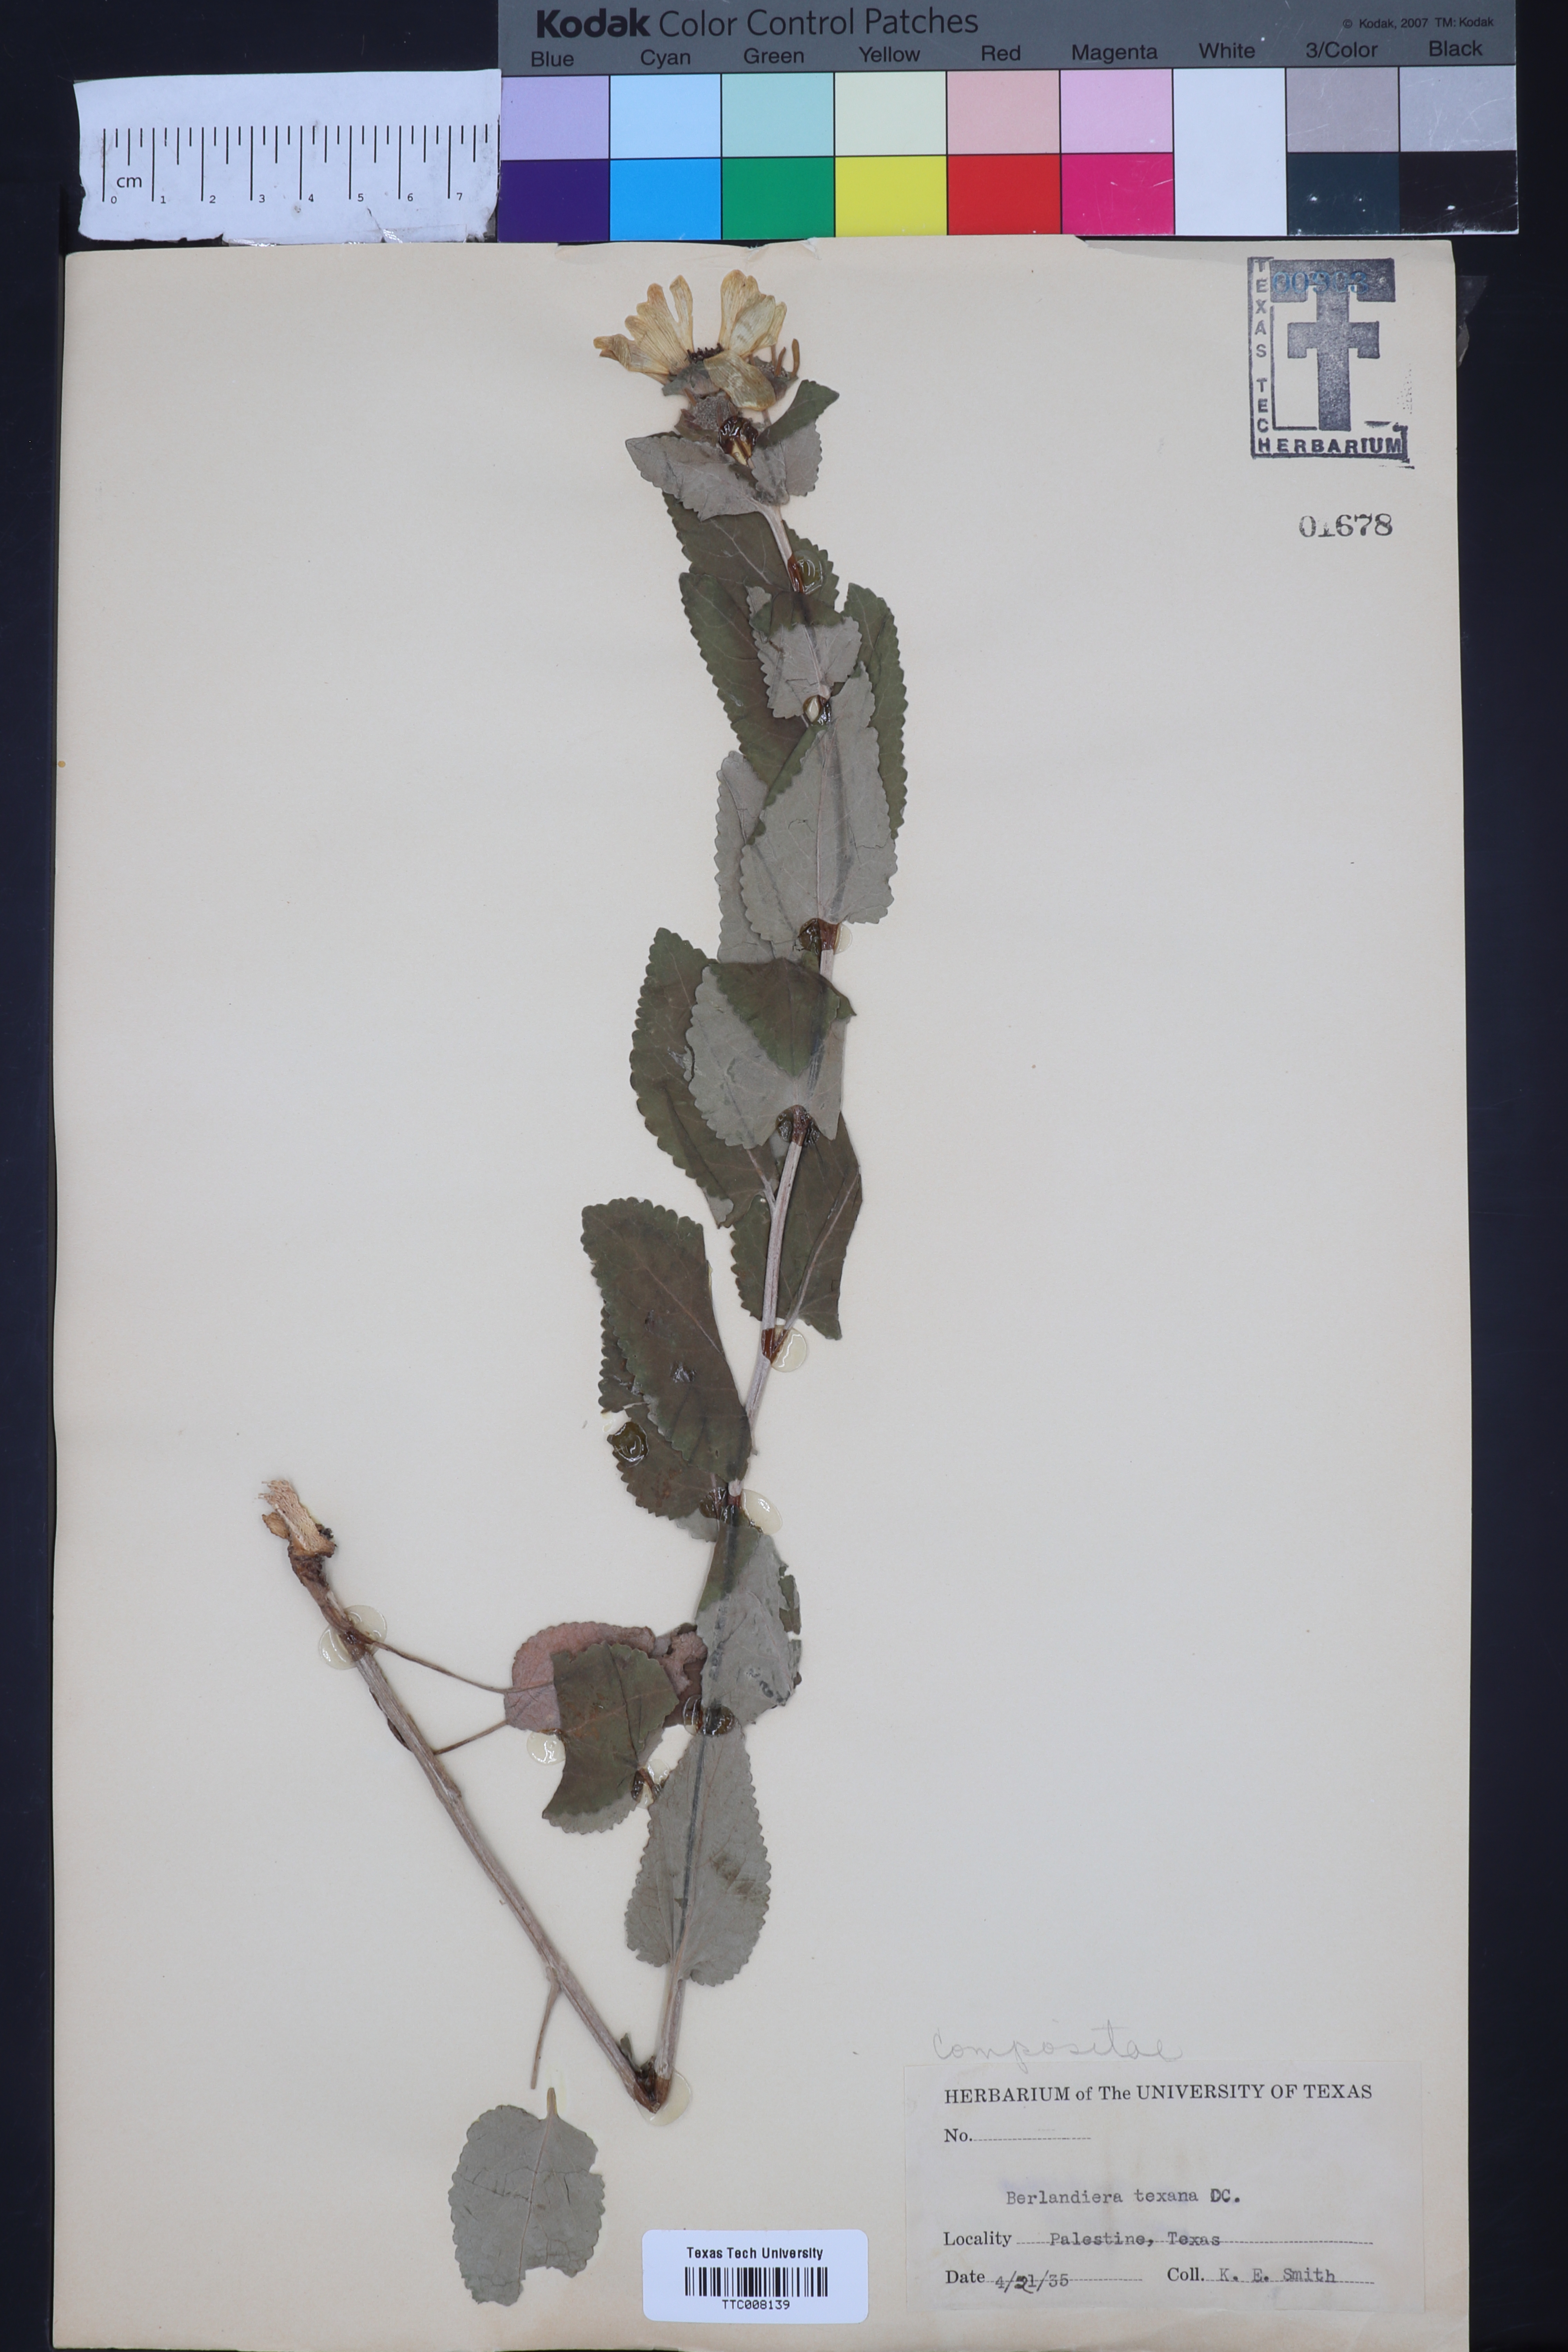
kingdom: Plantae
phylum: Tracheophyta
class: Magnoliopsida
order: Asterales
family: Asteraceae
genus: Berlandiera
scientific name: Berlandiera texana
